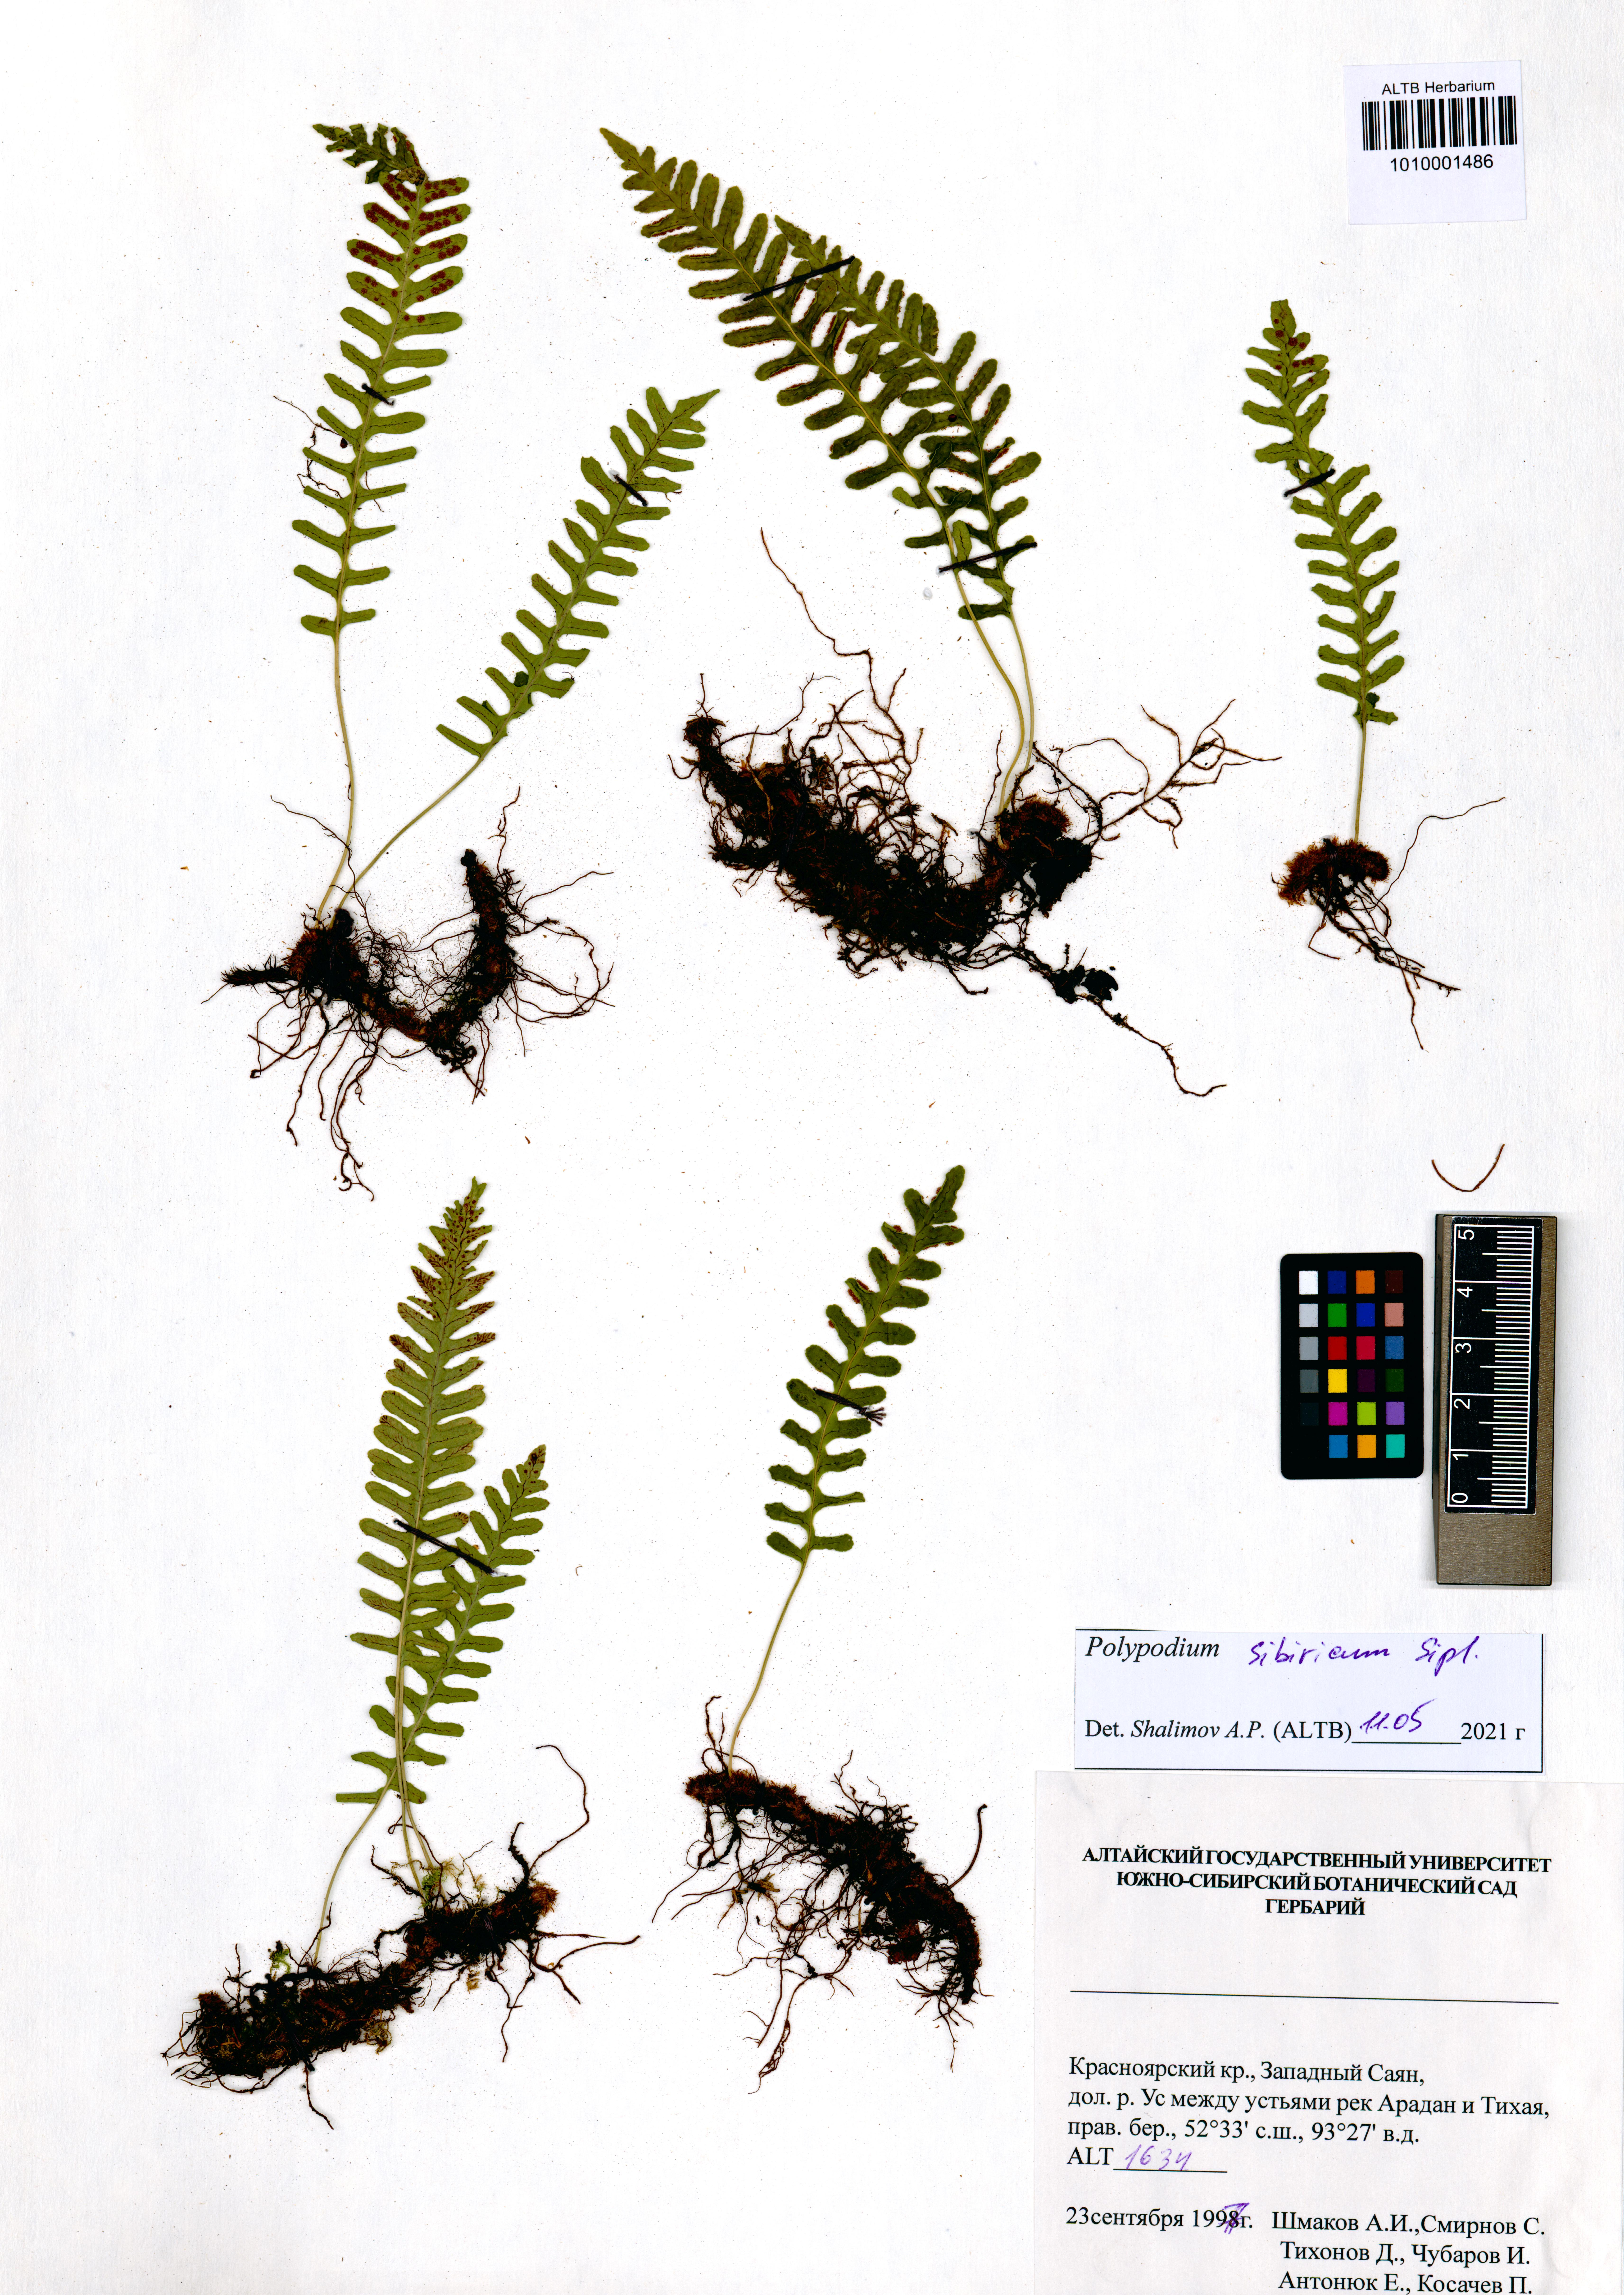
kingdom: Plantae
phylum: Tracheophyta
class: Polypodiopsida
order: Polypodiales
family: Polypodiaceae
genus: Polypodium
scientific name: Polypodium sibiricum
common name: Siberian polypody
